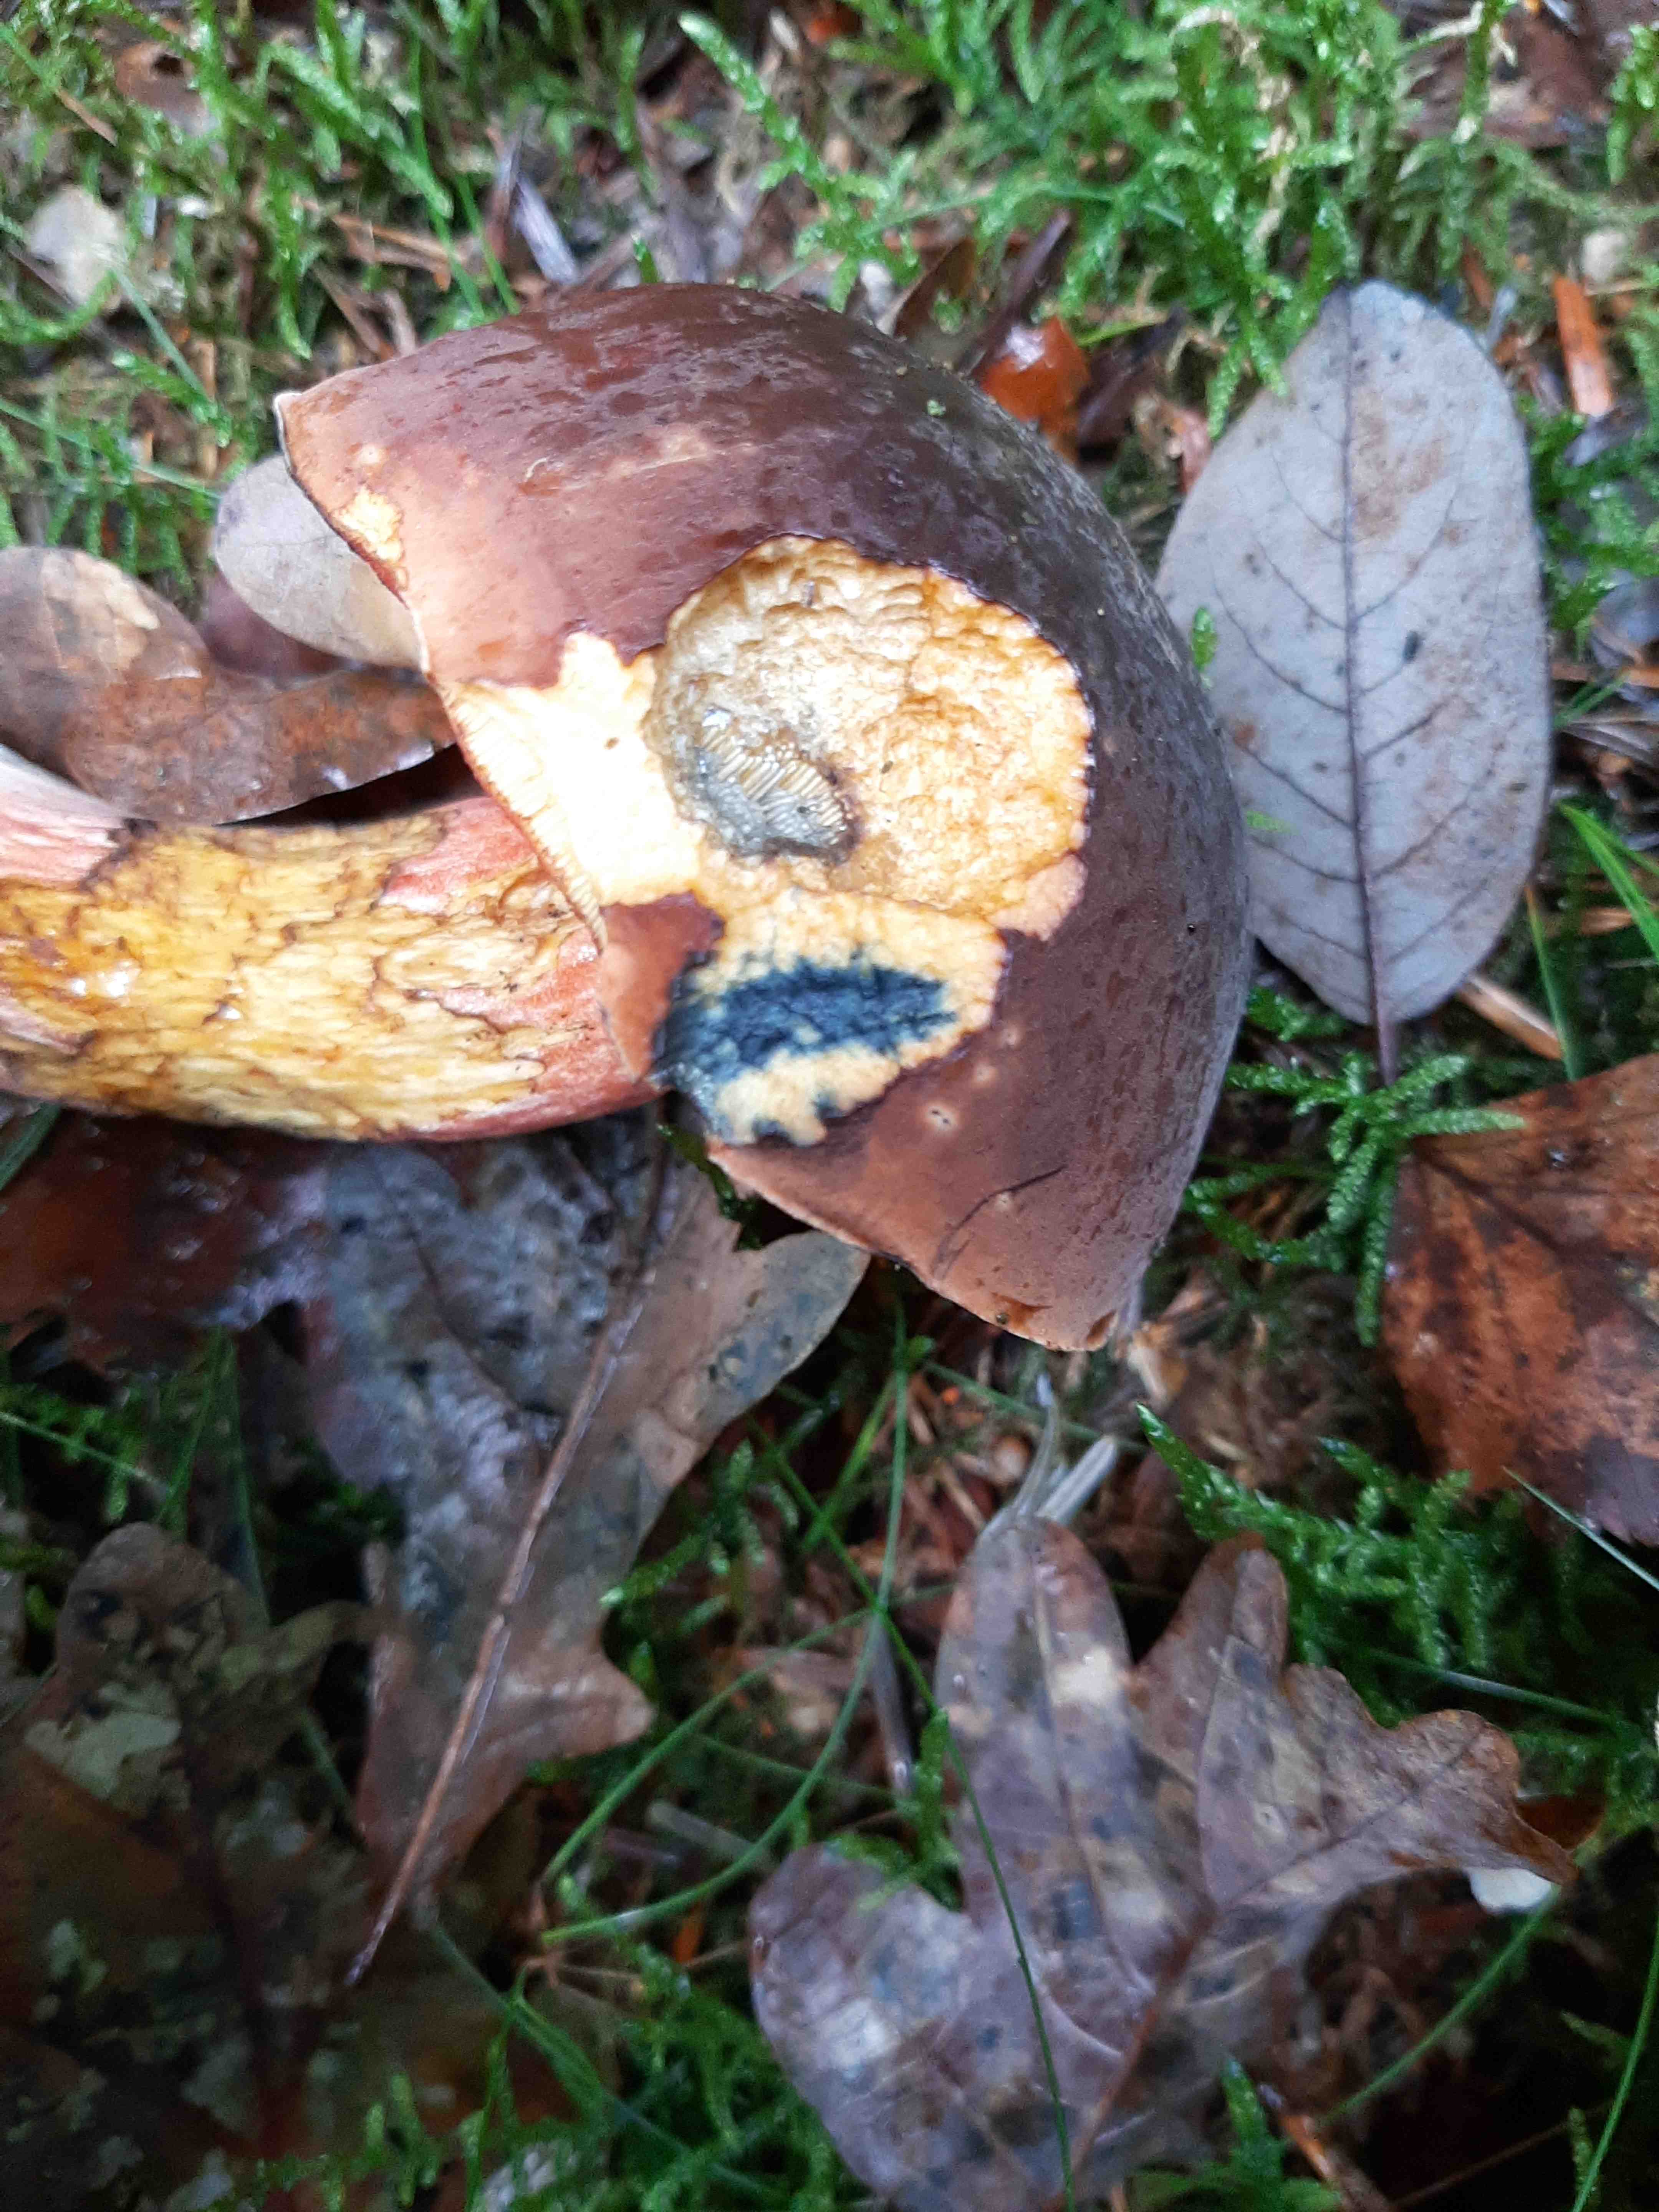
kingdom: Fungi
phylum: Basidiomycota
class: Agaricomycetes
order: Boletales
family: Boletaceae
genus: Neoboletus
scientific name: Neoboletus erythropus
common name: punktstokket indigorørhat
